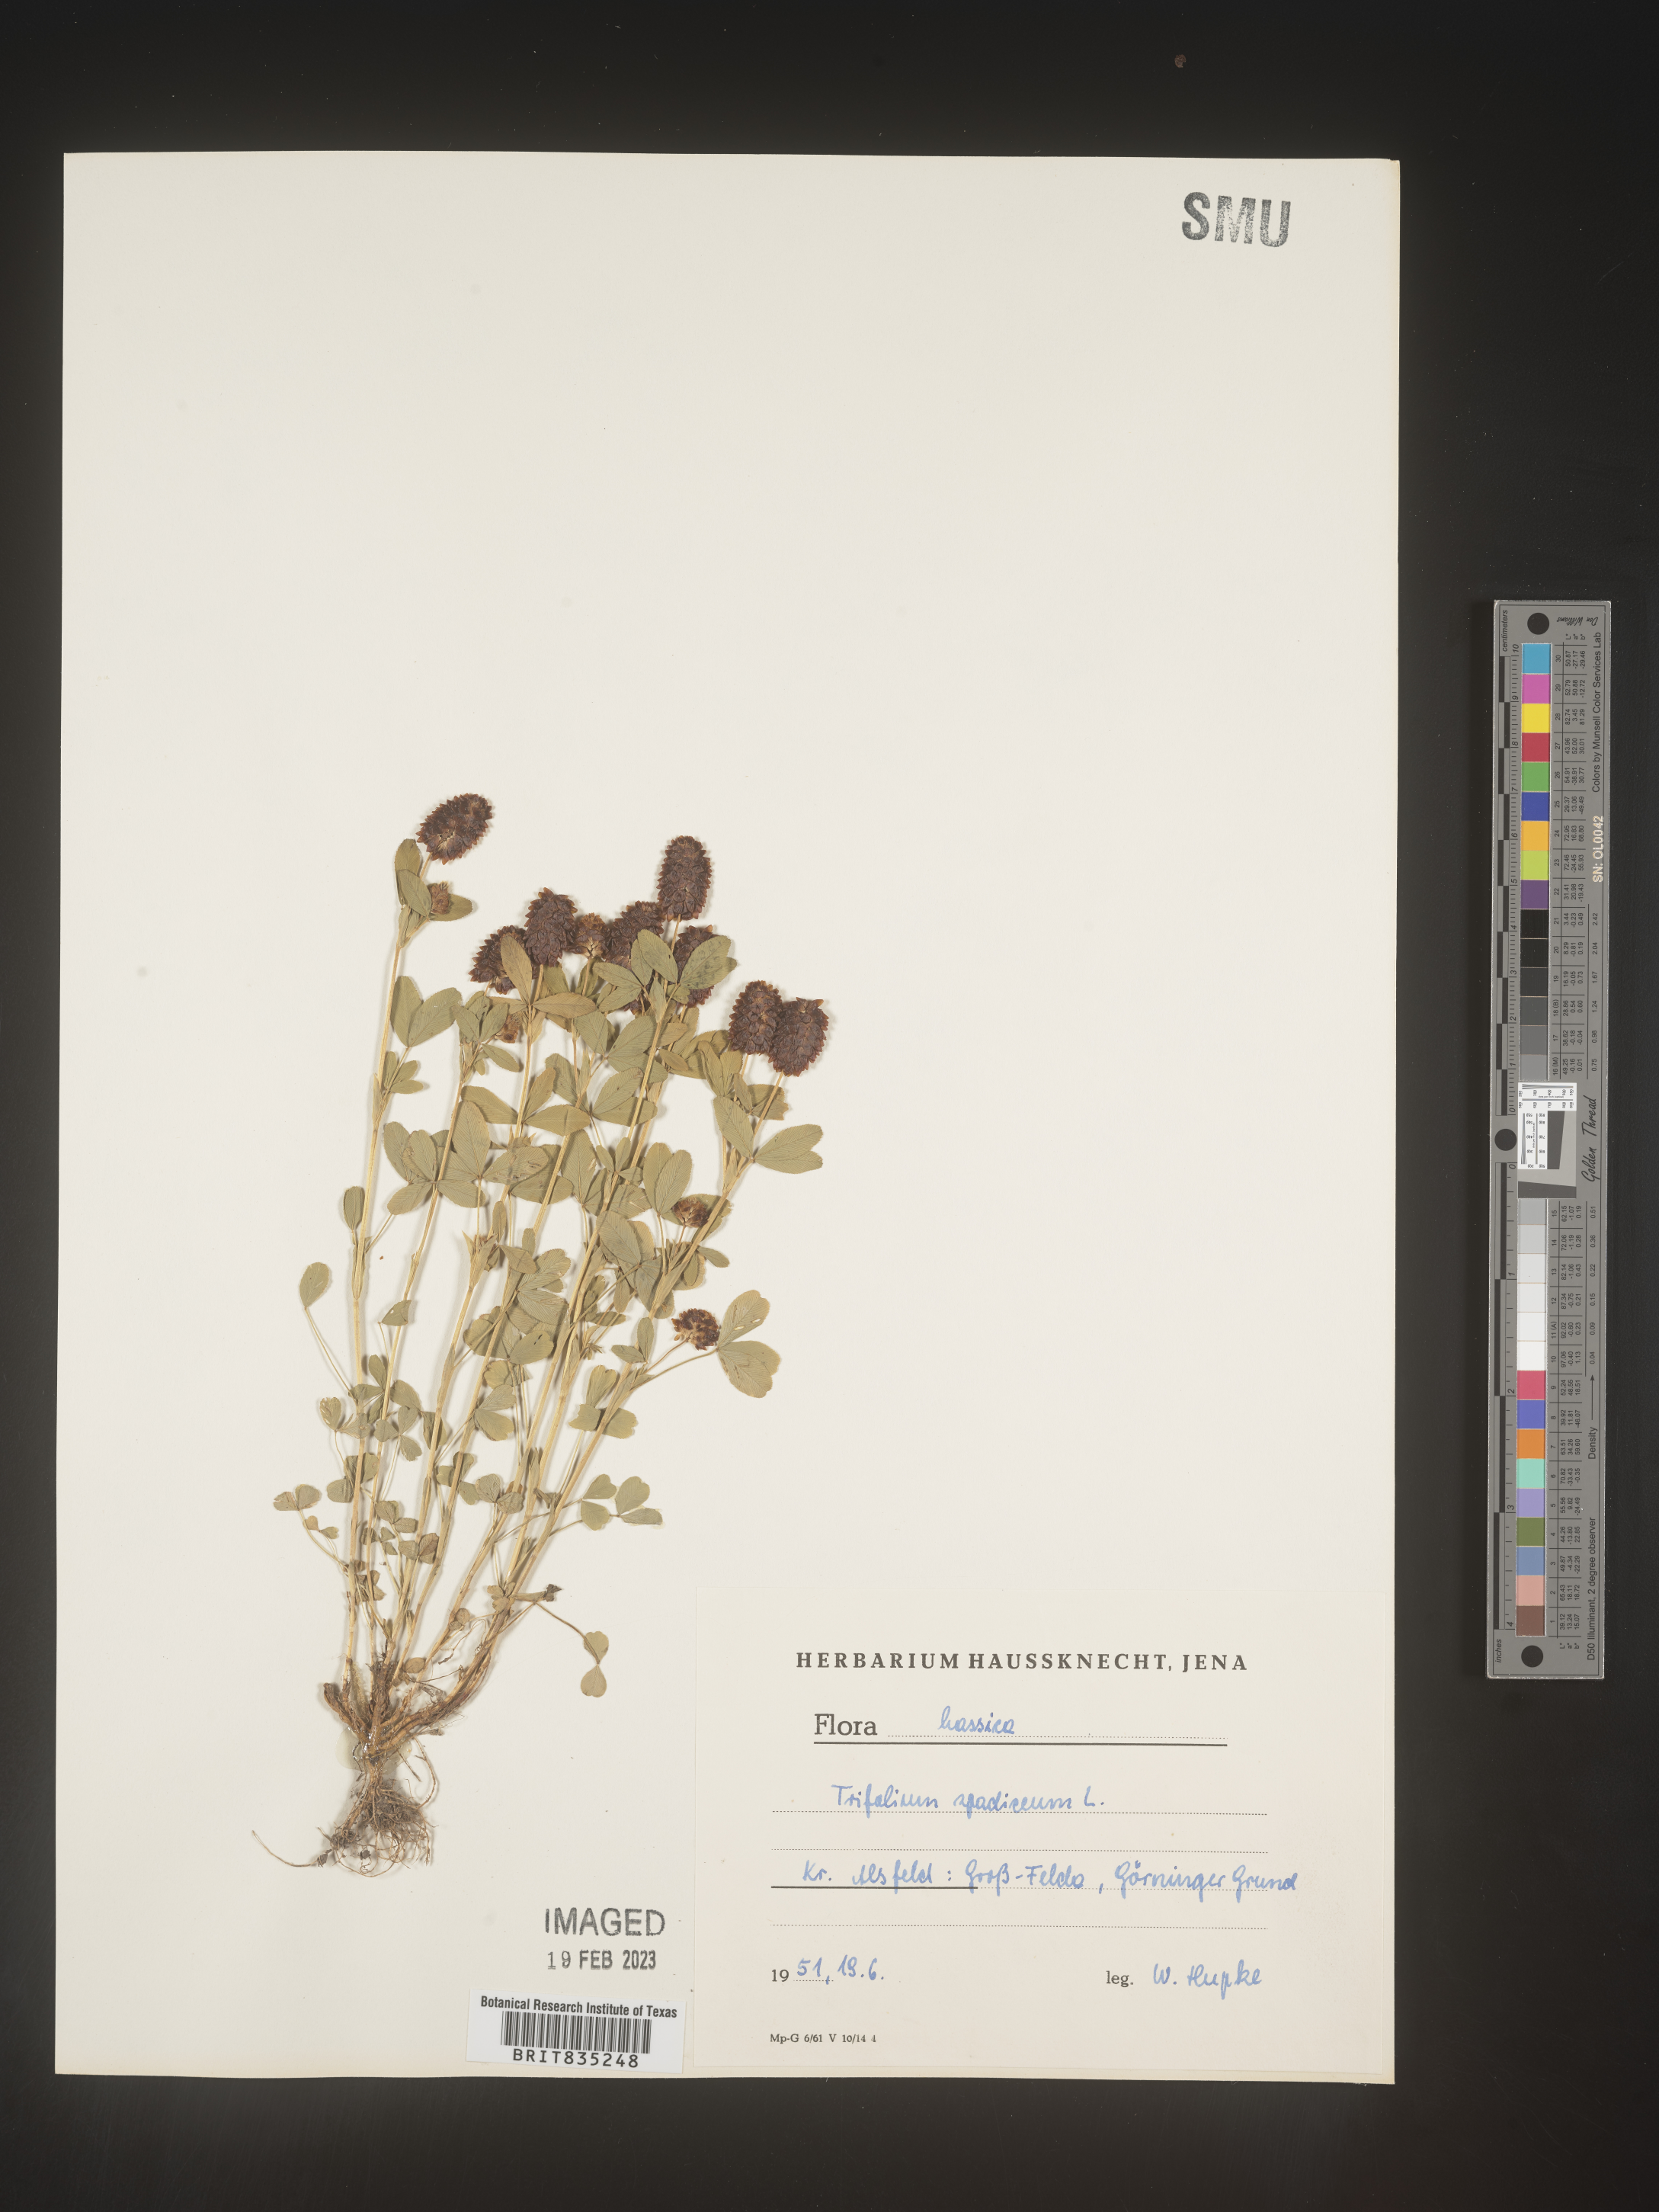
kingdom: Plantae
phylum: Tracheophyta
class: Magnoliopsida
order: Fabales
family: Fabaceae
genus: Trifolium
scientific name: Trifolium
